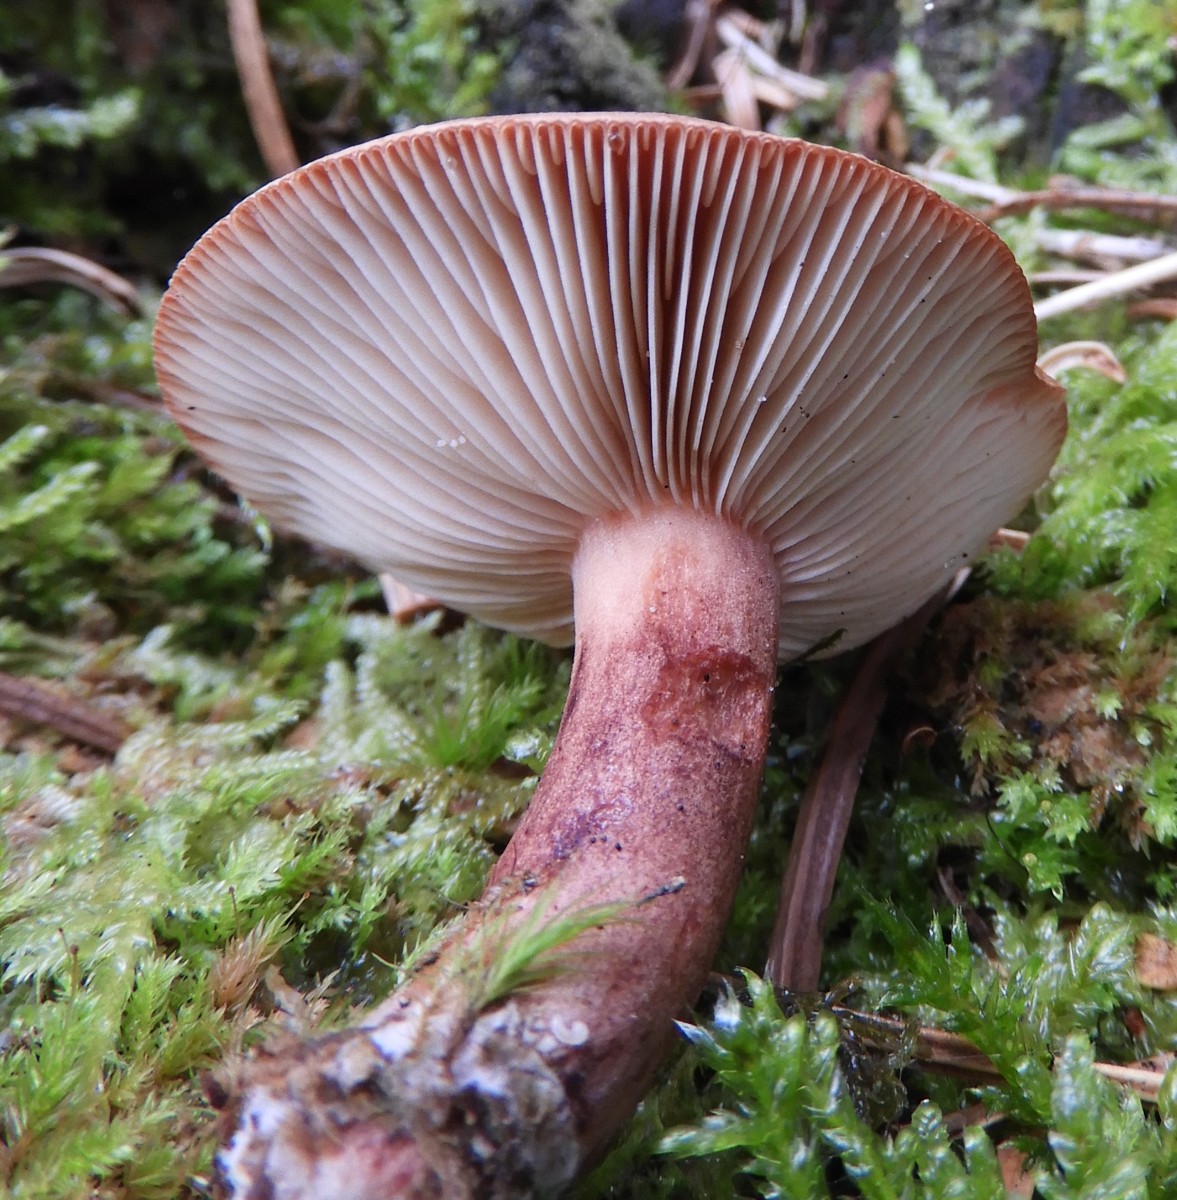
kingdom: Fungi
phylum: Basidiomycota
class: Agaricomycetes
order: Russulales
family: Russulaceae
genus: Lactarius
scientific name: Lactarius quietus
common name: ege-mælkehat
